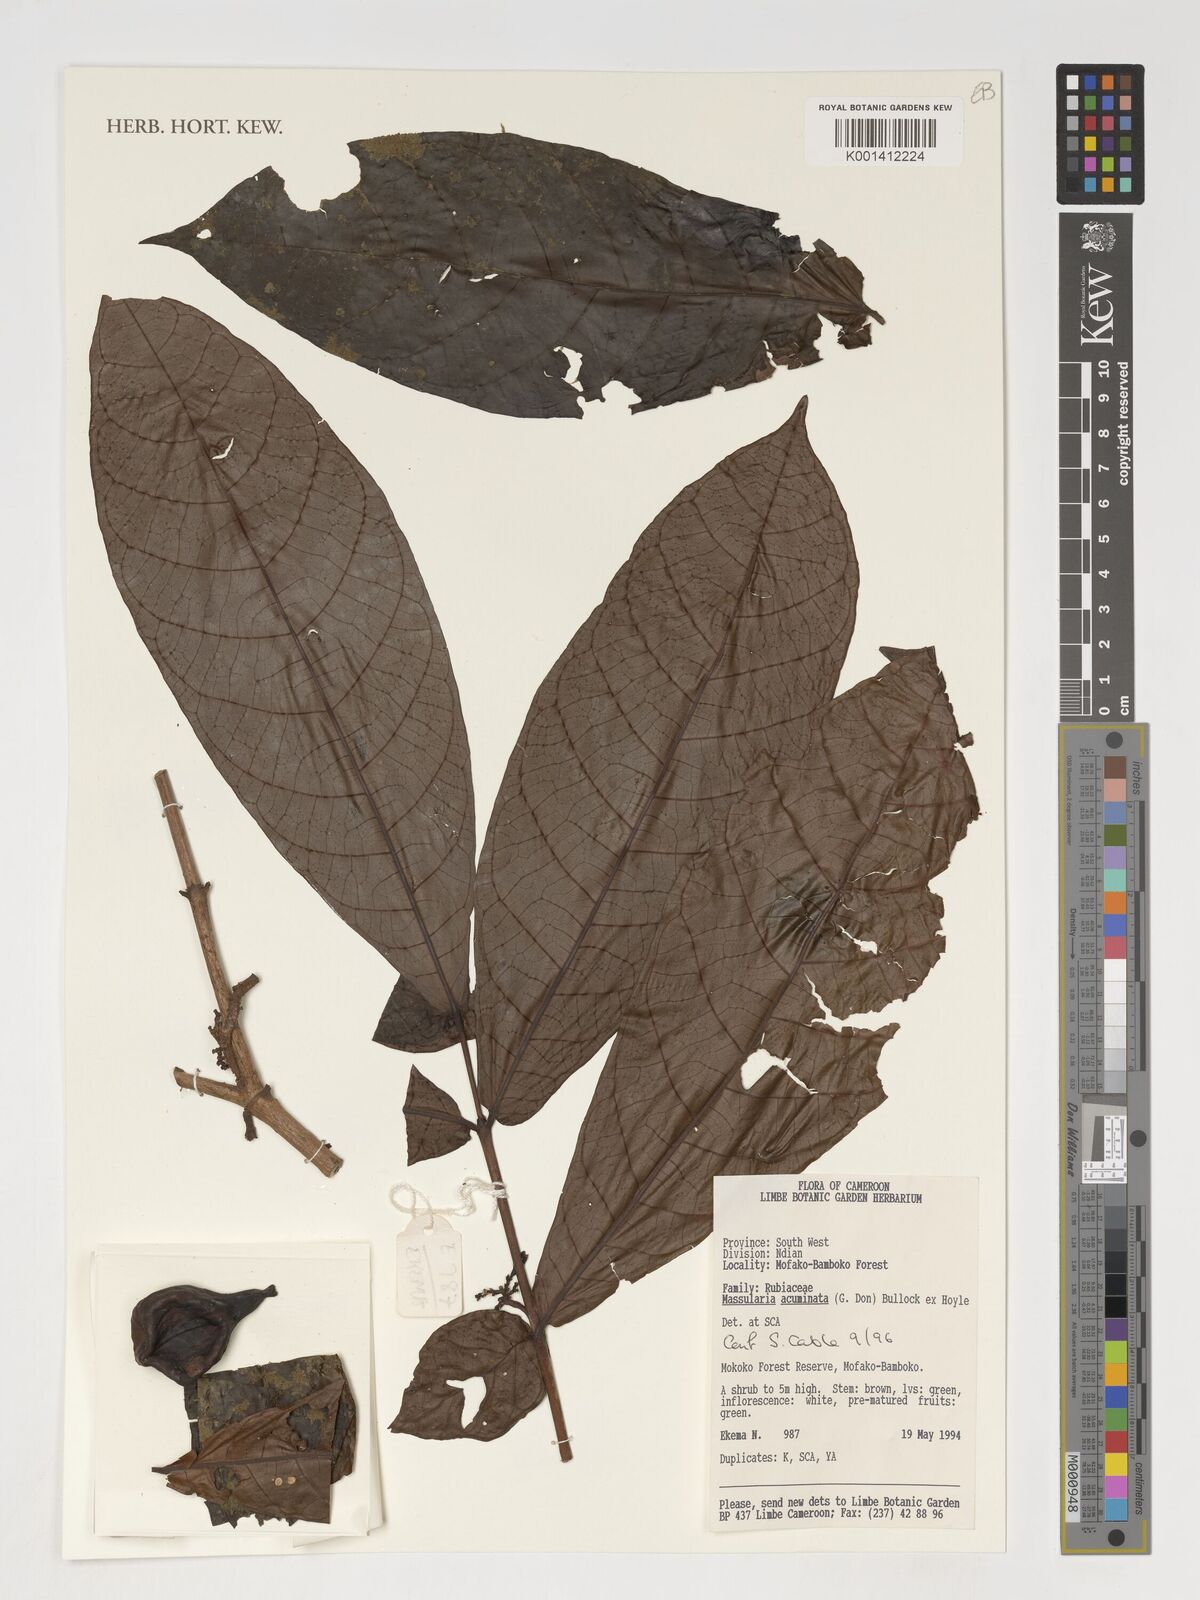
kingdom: Plantae
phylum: Tracheophyta
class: Magnoliopsida
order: Gentianales
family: Rubiaceae
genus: Massularia
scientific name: Massularia acuminata
